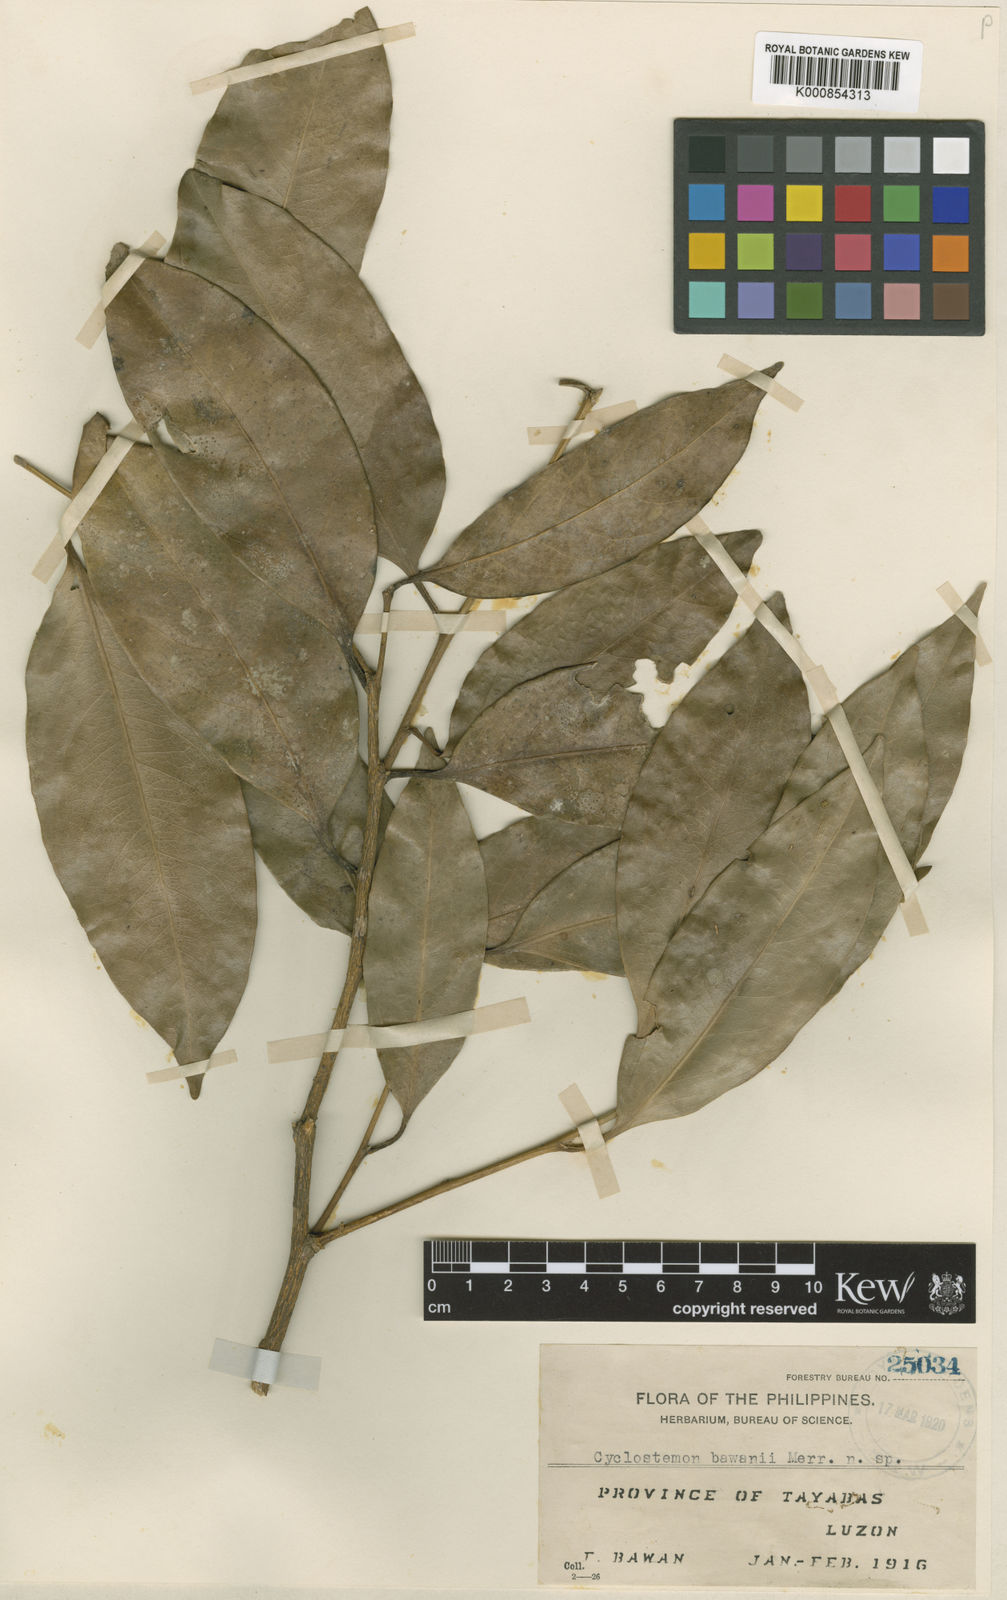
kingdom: Plantae
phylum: Tracheophyta
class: Magnoliopsida
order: Malpighiales
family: Putranjivaceae
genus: Drypetes
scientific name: Drypetes bawanii
